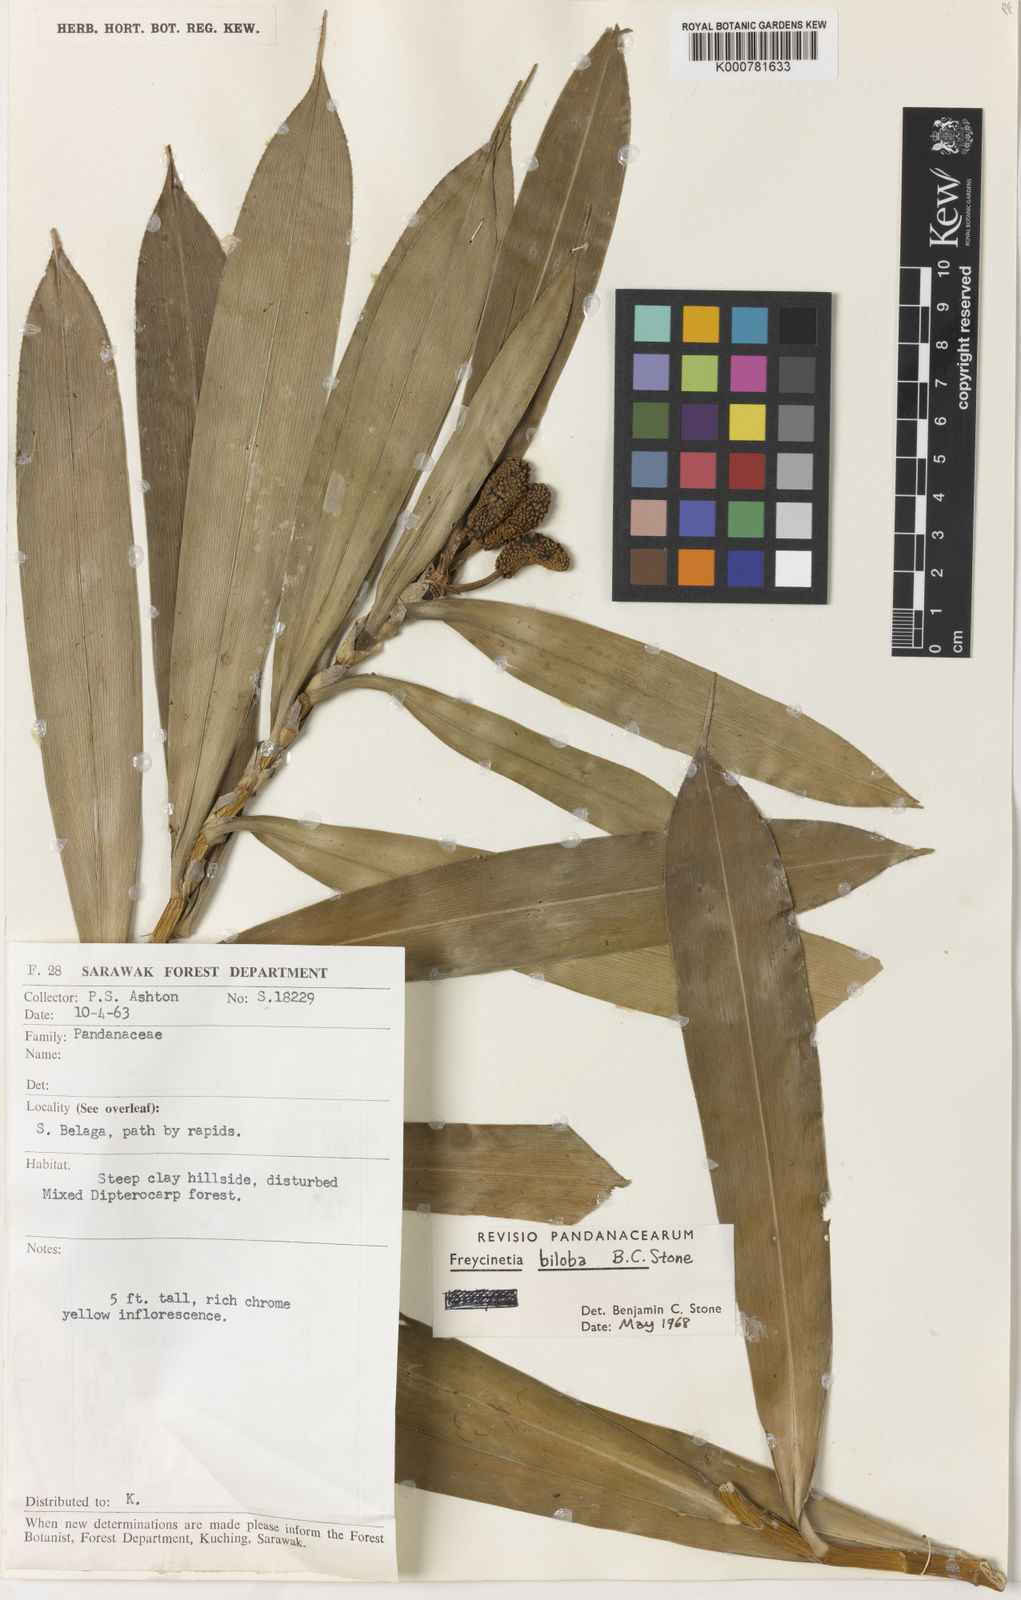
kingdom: Plantae
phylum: Tracheophyta
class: Liliopsida
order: Pandanales
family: Pandanaceae
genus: Freycinetia
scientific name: Freycinetia biloba
